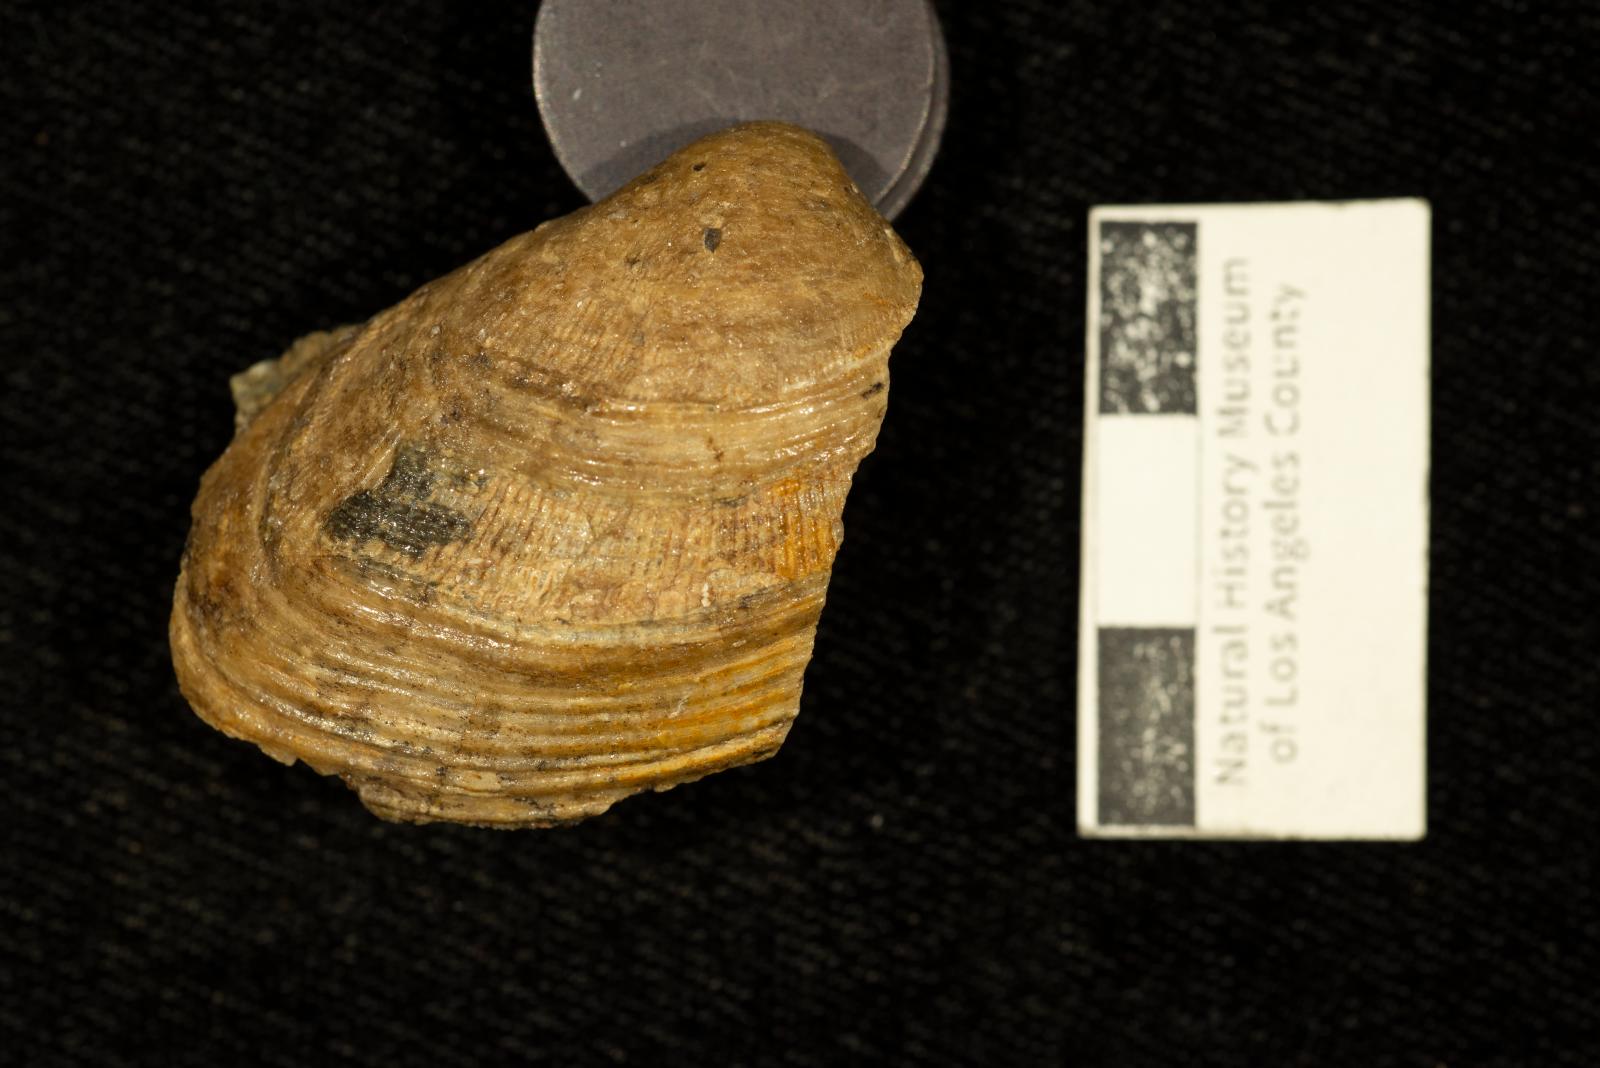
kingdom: Animalia
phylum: Mollusca
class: Bivalvia
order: Carditida
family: Crassatellidae
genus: Crassatella
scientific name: Crassatella lomana
